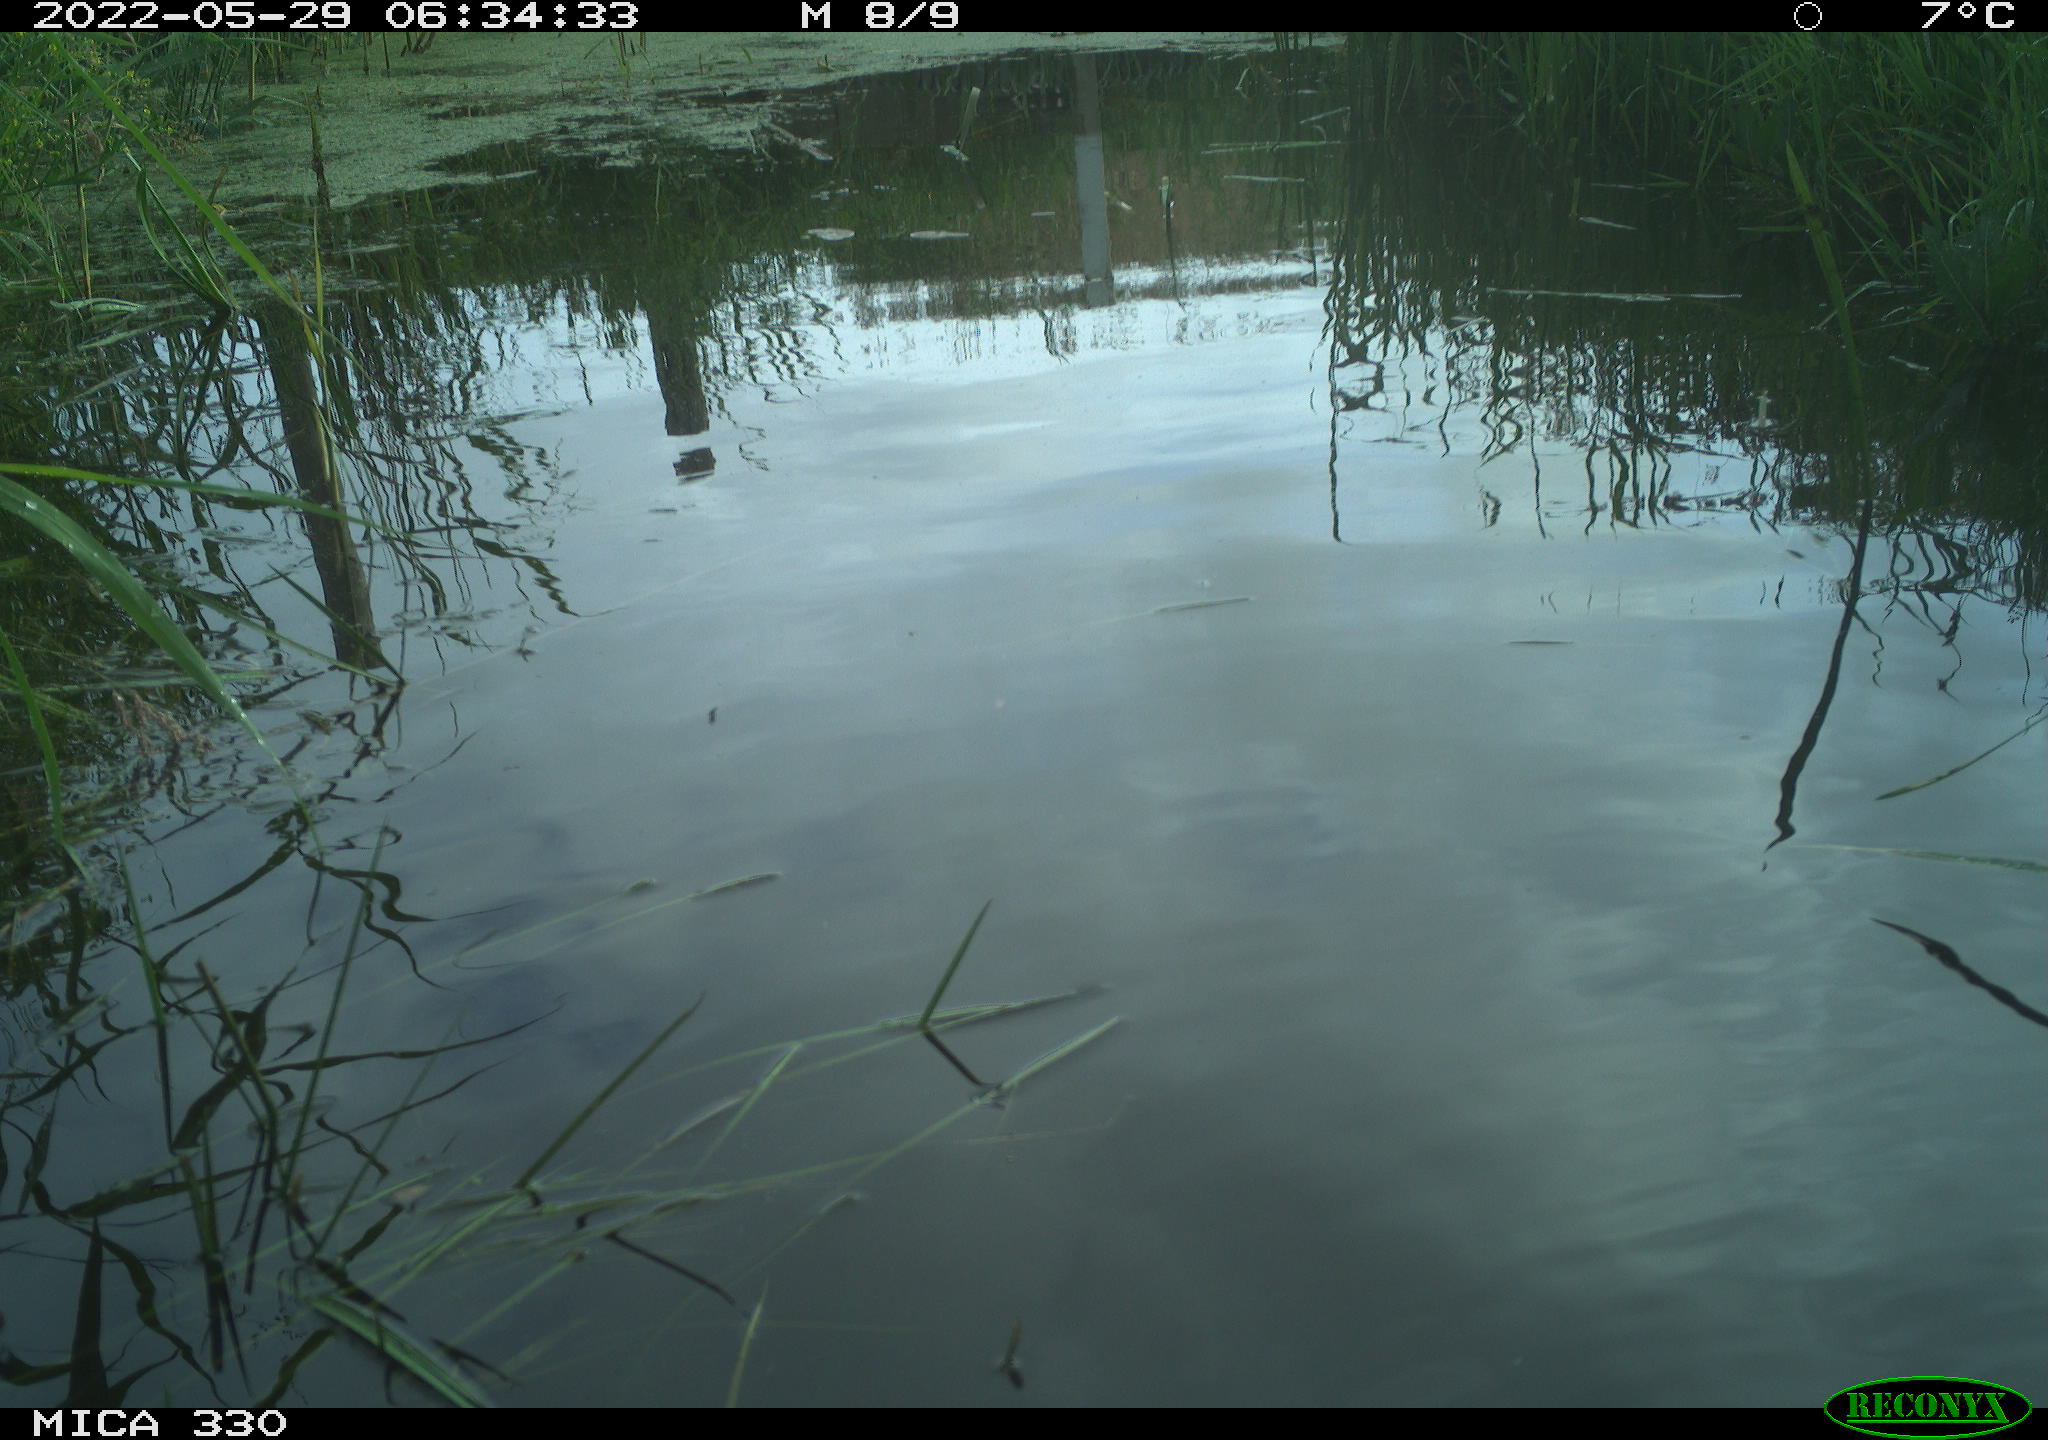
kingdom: Animalia
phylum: Chordata
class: Aves
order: Anseriformes
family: Anatidae
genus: Anas
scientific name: Anas platyrhynchos
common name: Mallard
